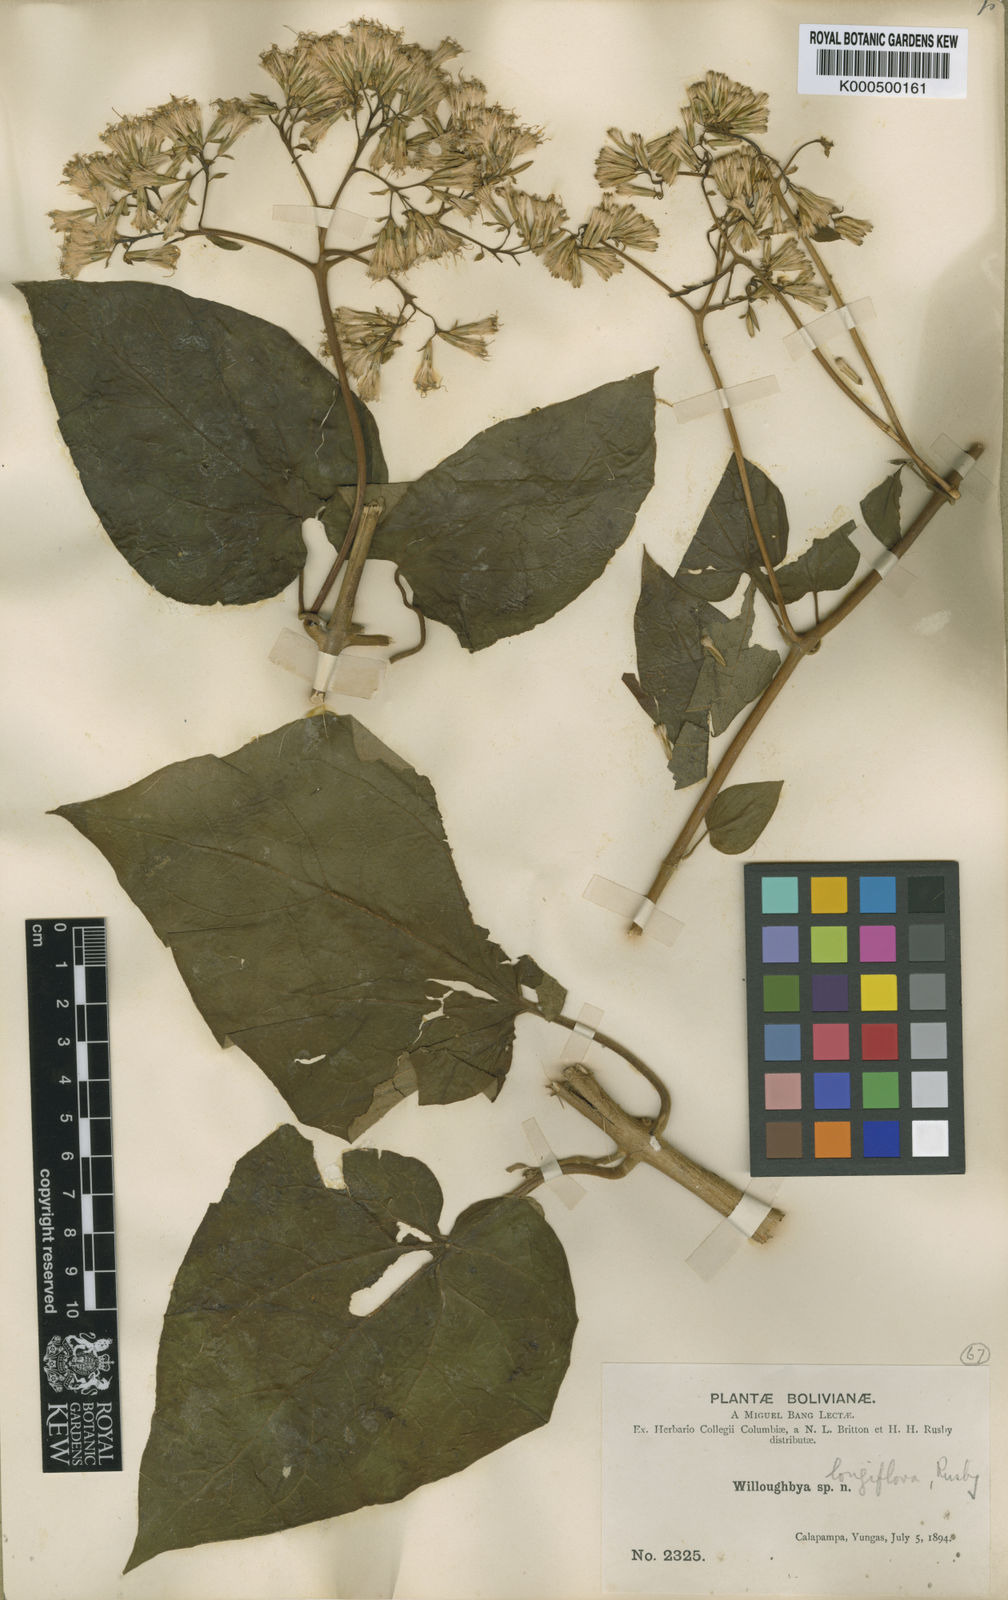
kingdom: Plantae
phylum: Tracheophyta
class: Magnoliopsida
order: Asterales
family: Asteraceae
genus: Mikania
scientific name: Mikania longiflora
